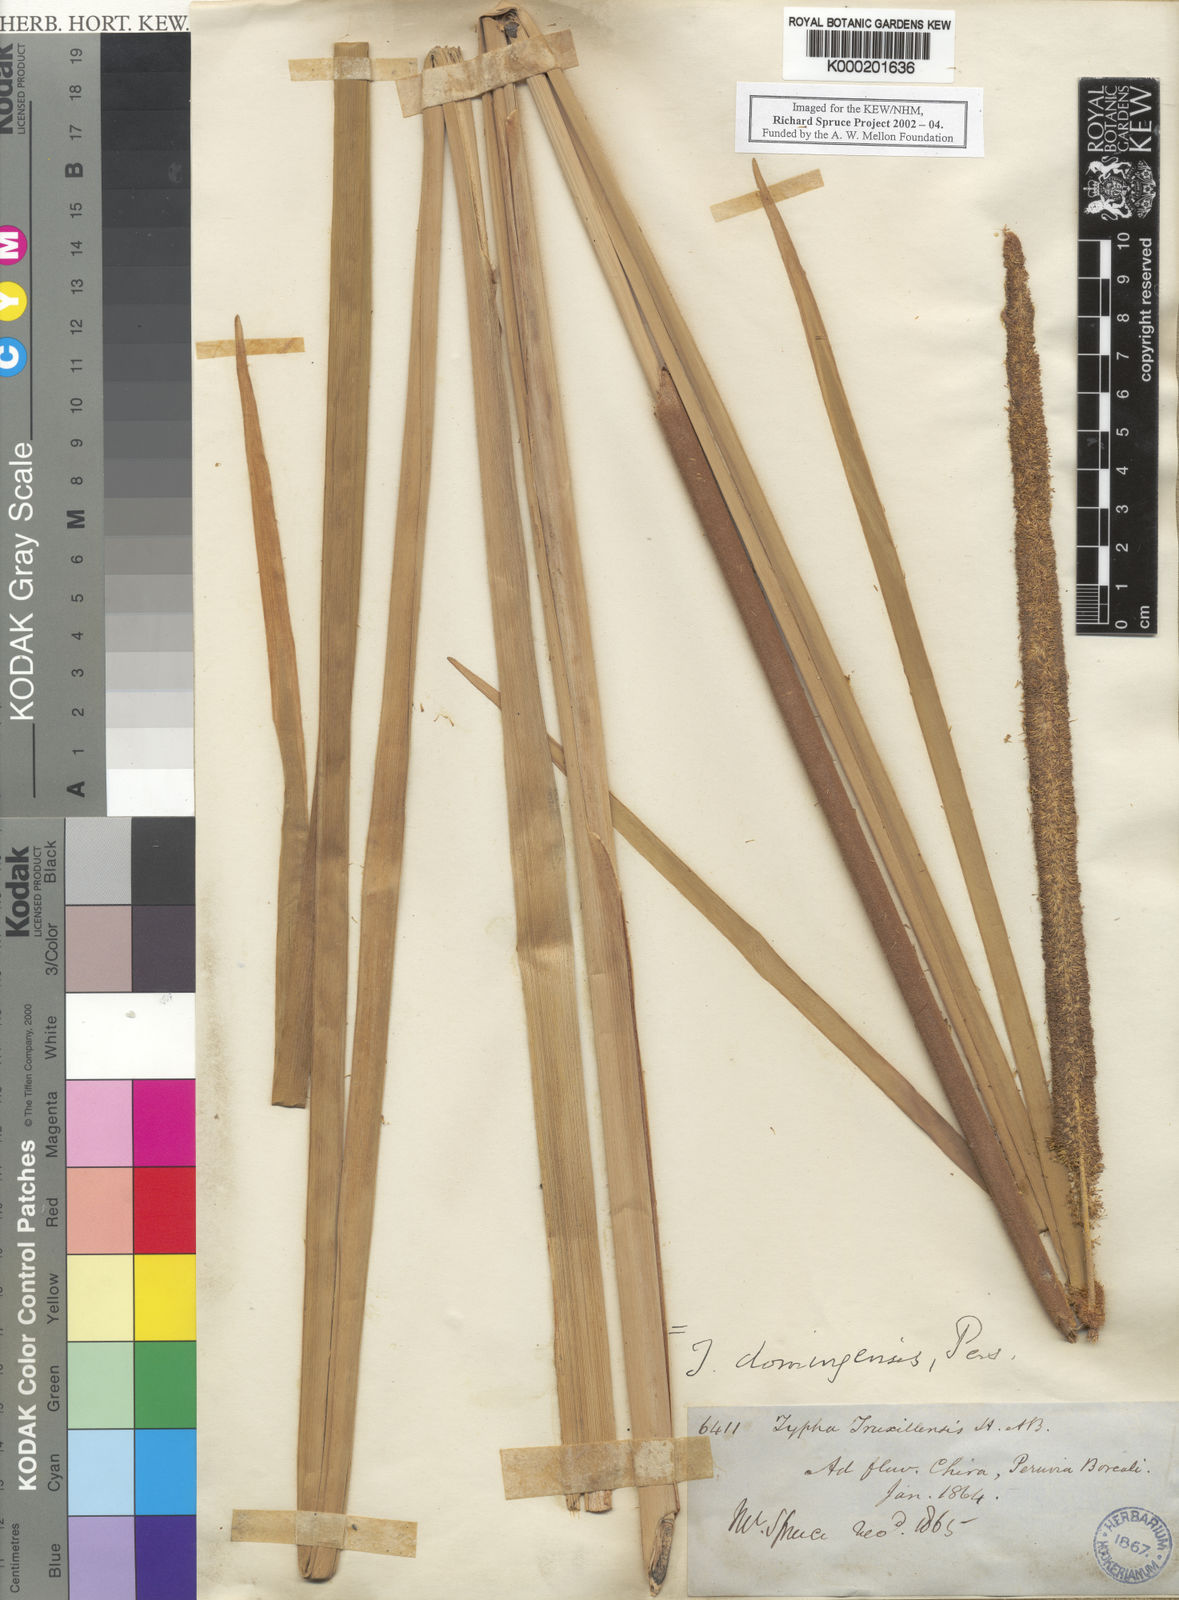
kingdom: Plantae
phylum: Tracheophyta
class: Liliopsida
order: Poales
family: Typhaceae
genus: Typha
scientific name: Typha domingensis
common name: Southern cattail
